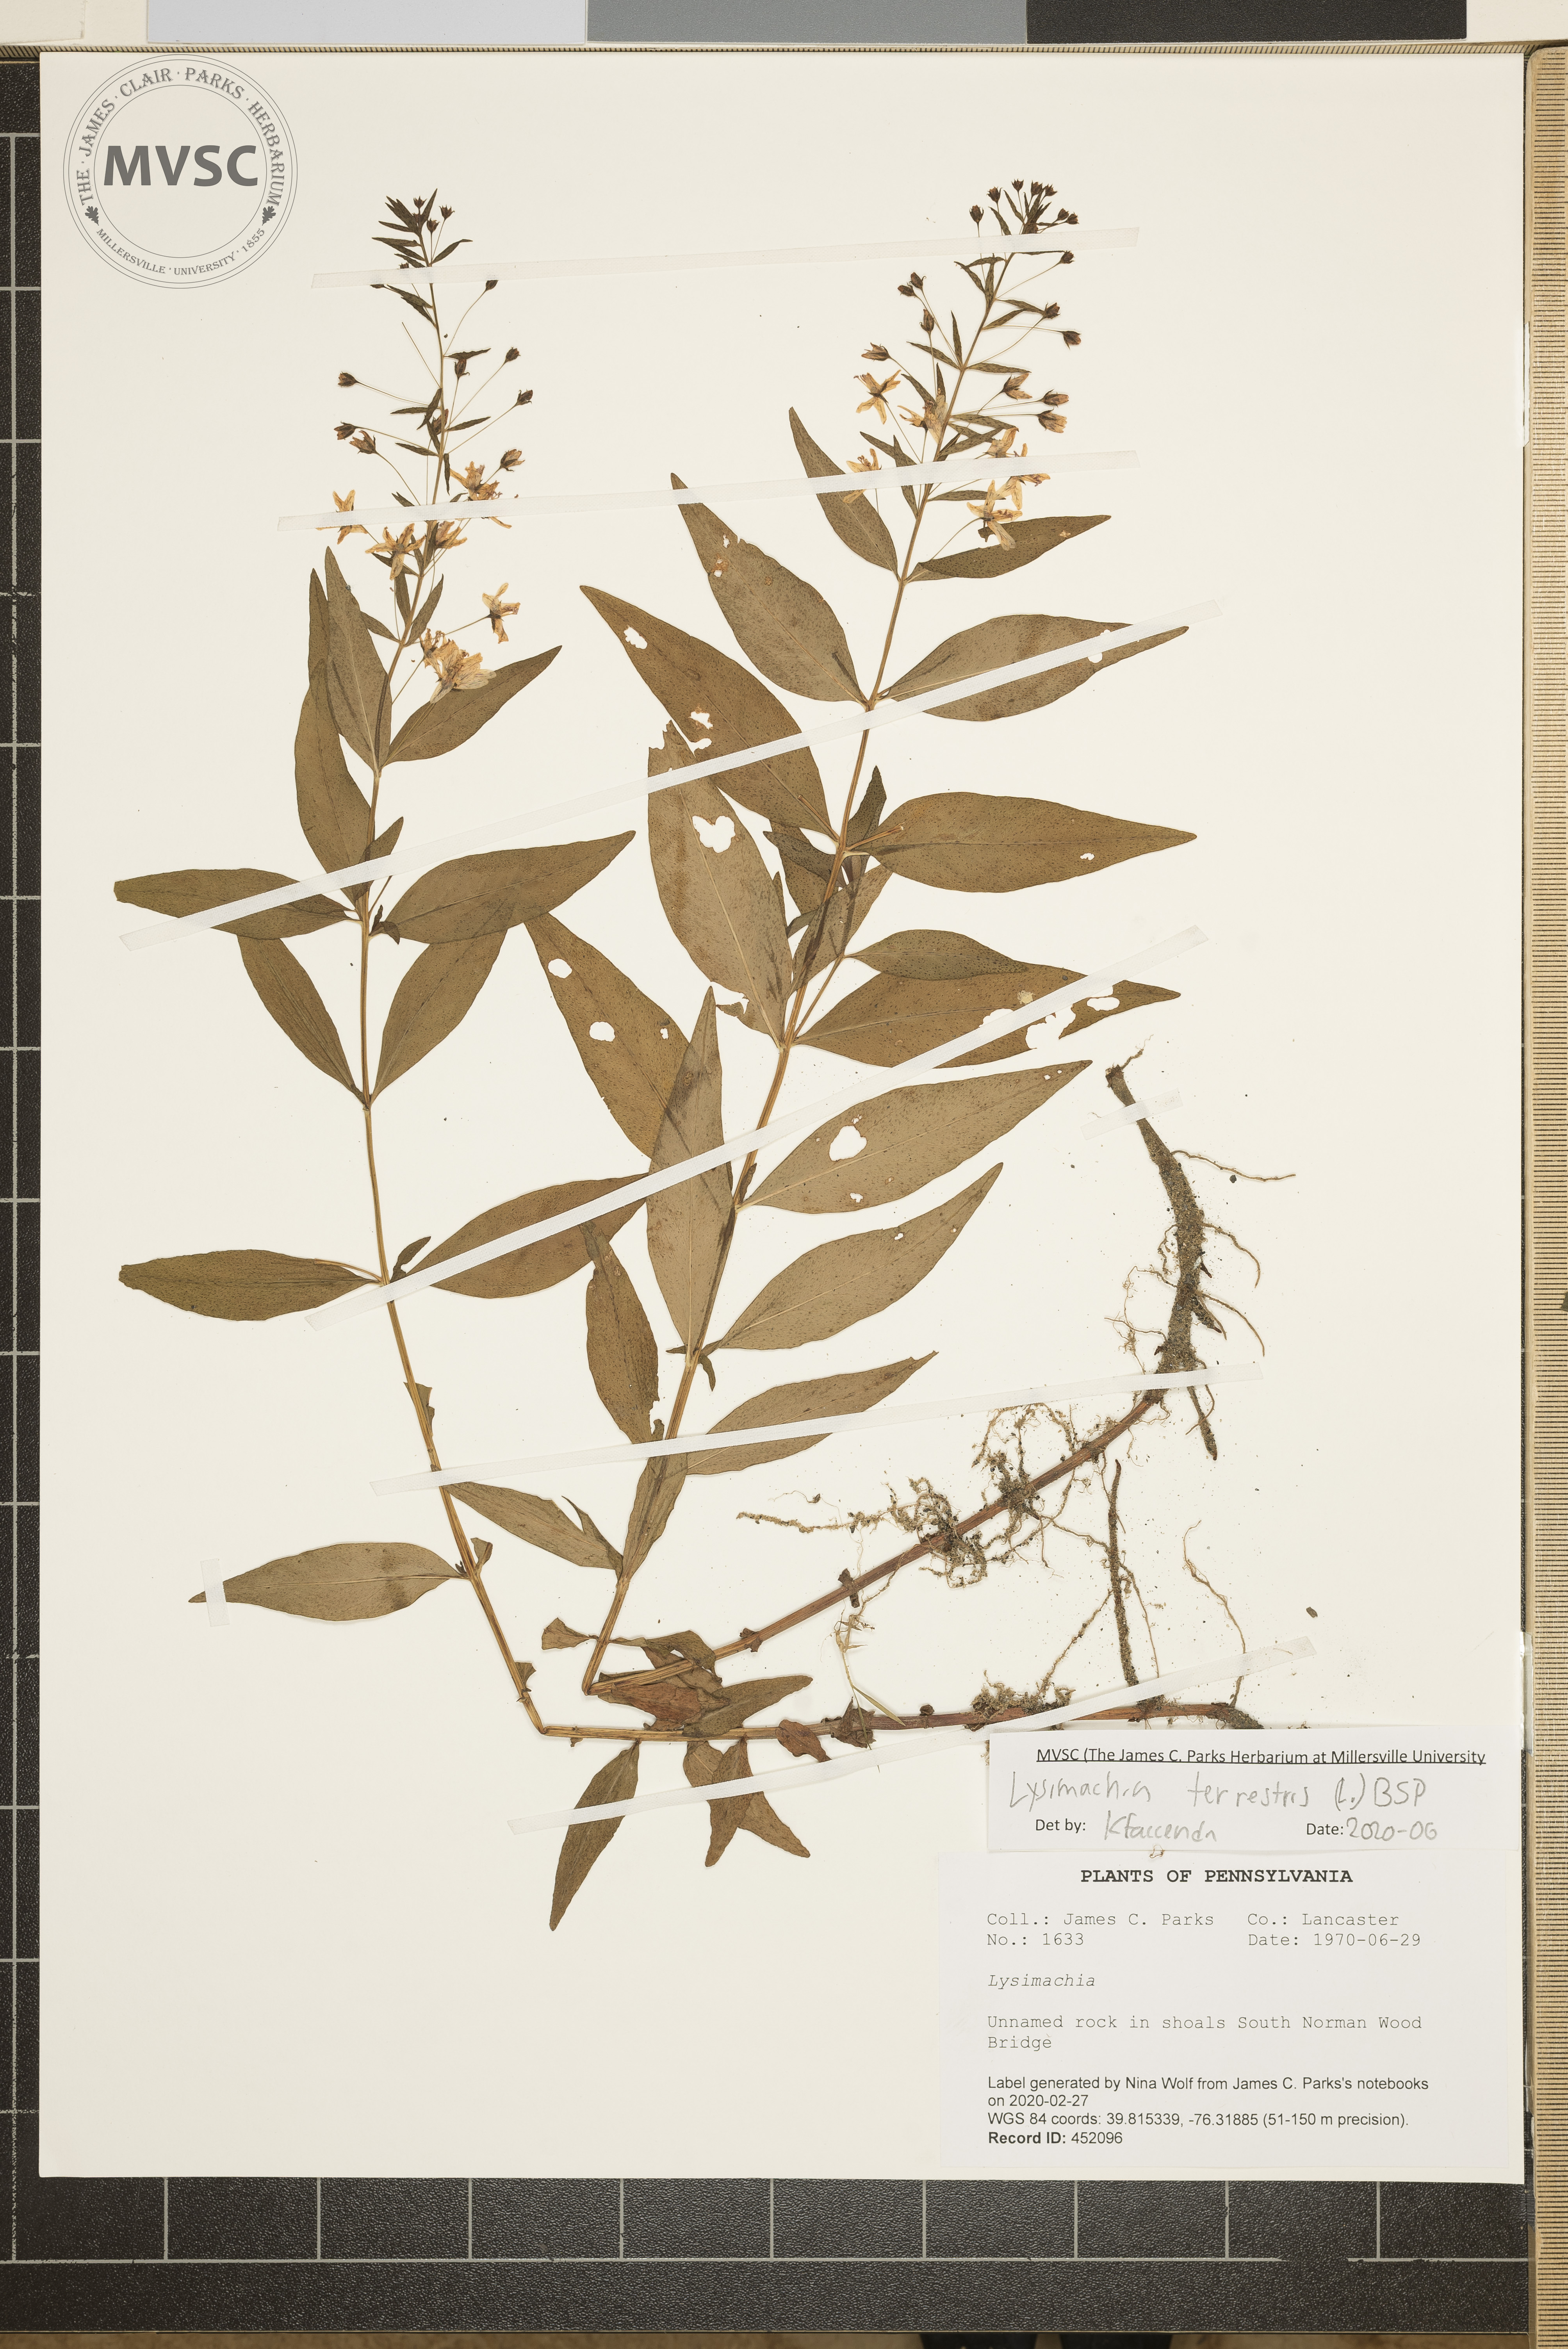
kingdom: Plantae
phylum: Tracheophyta
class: Magnoliopsida
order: Ericales
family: Primulaceae
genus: Lysimachia
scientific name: Lysimachia
